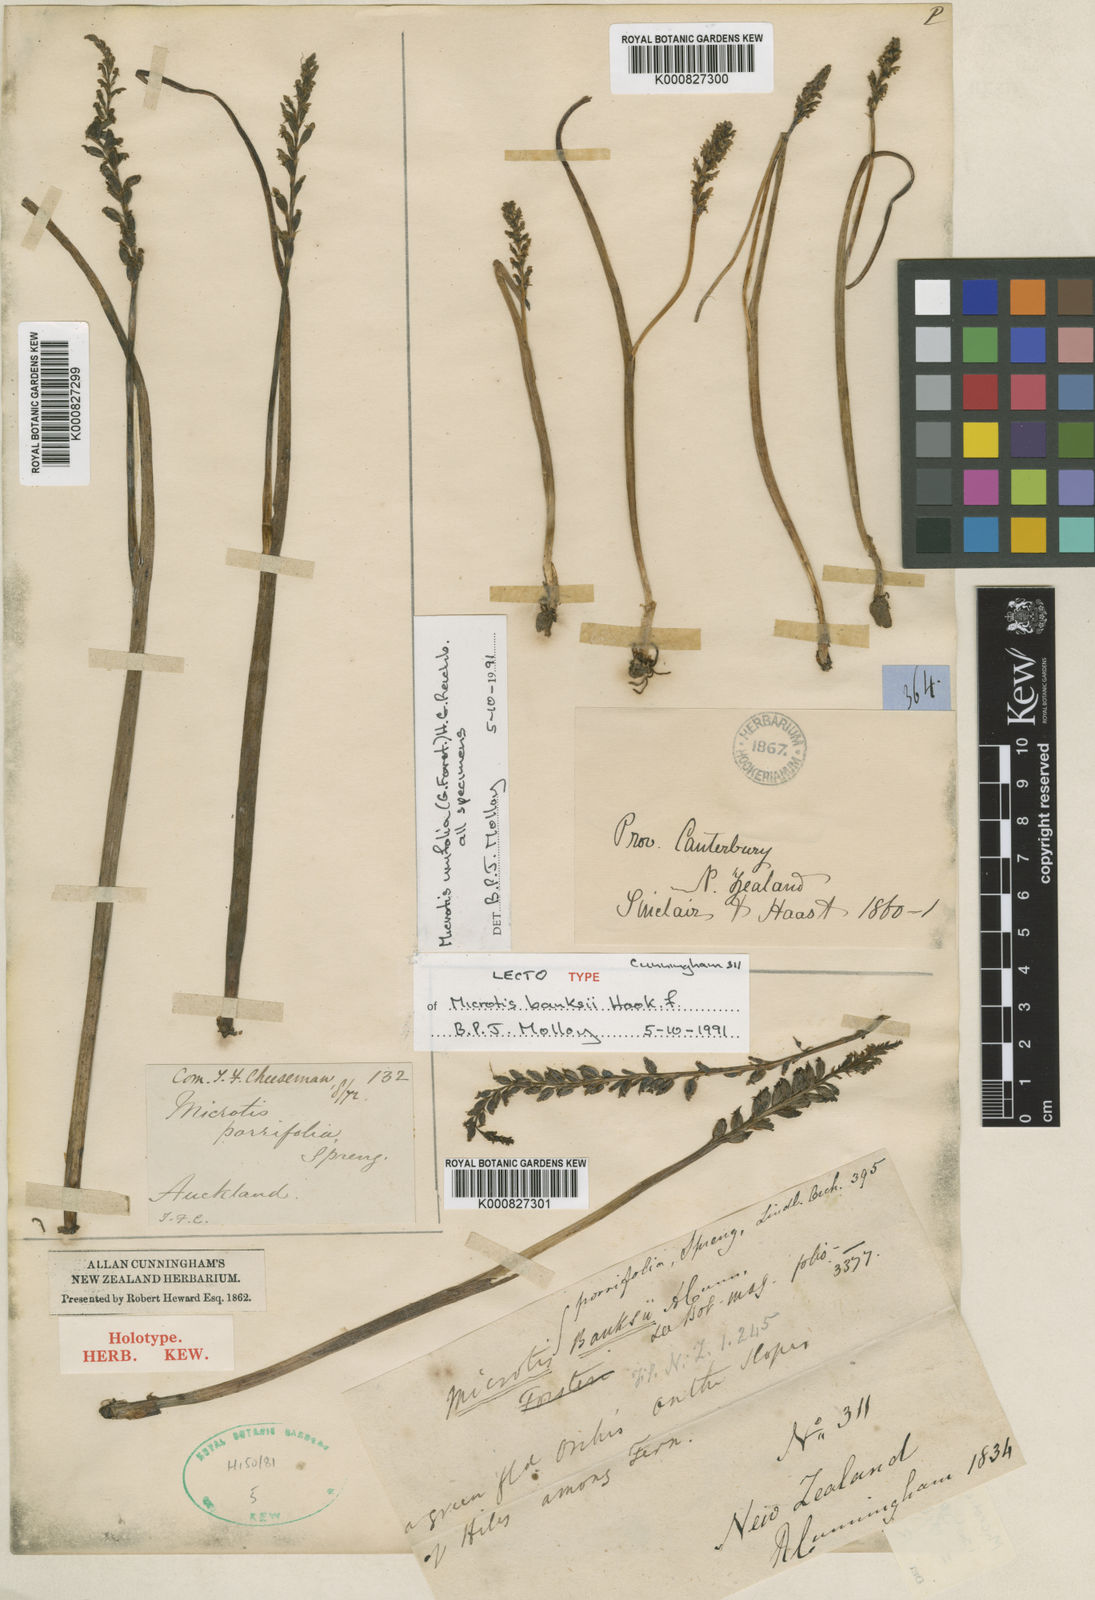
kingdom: Plantae
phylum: Tracheophyta
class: Liliopsida
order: Asparagales
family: Orchidaceae
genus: Microtis
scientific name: Microtis unifolia
